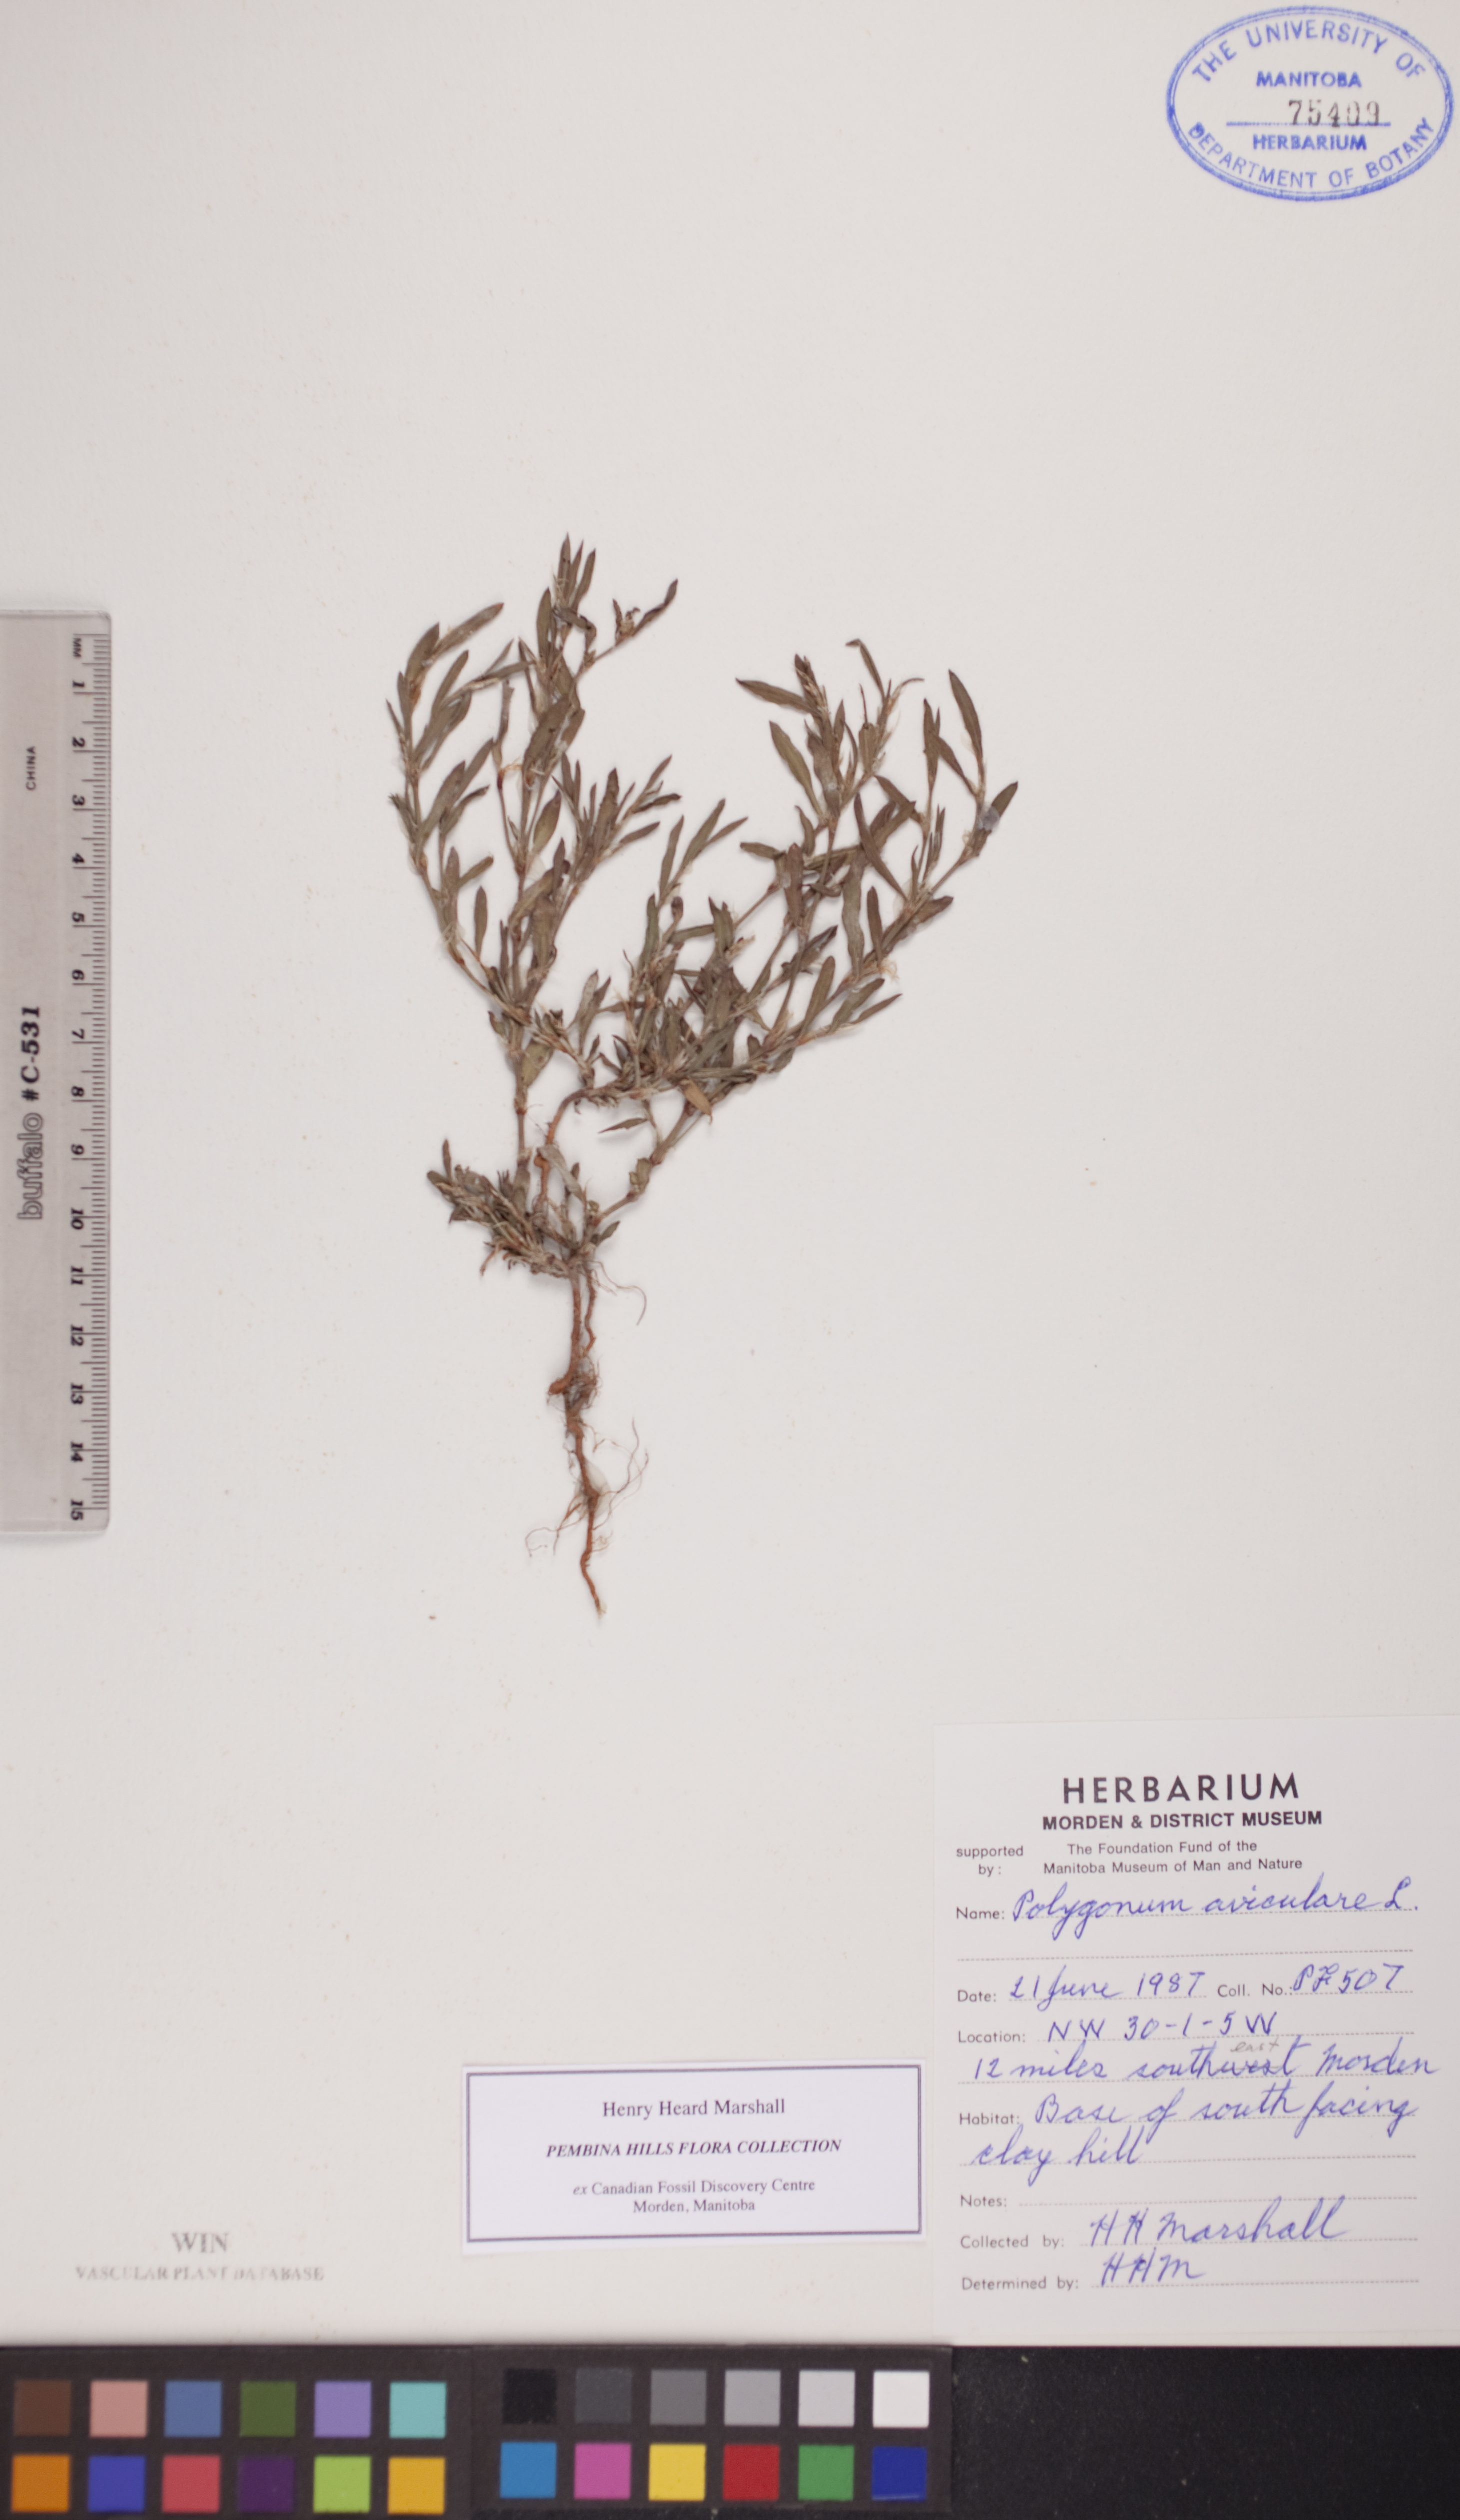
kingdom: Plantae
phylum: Tracheophyta
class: Magnoliopsida
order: Caryophyllales
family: Polygonaceae
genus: Polygonum
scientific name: Polygonum aviculare
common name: Prostrate knotweed
